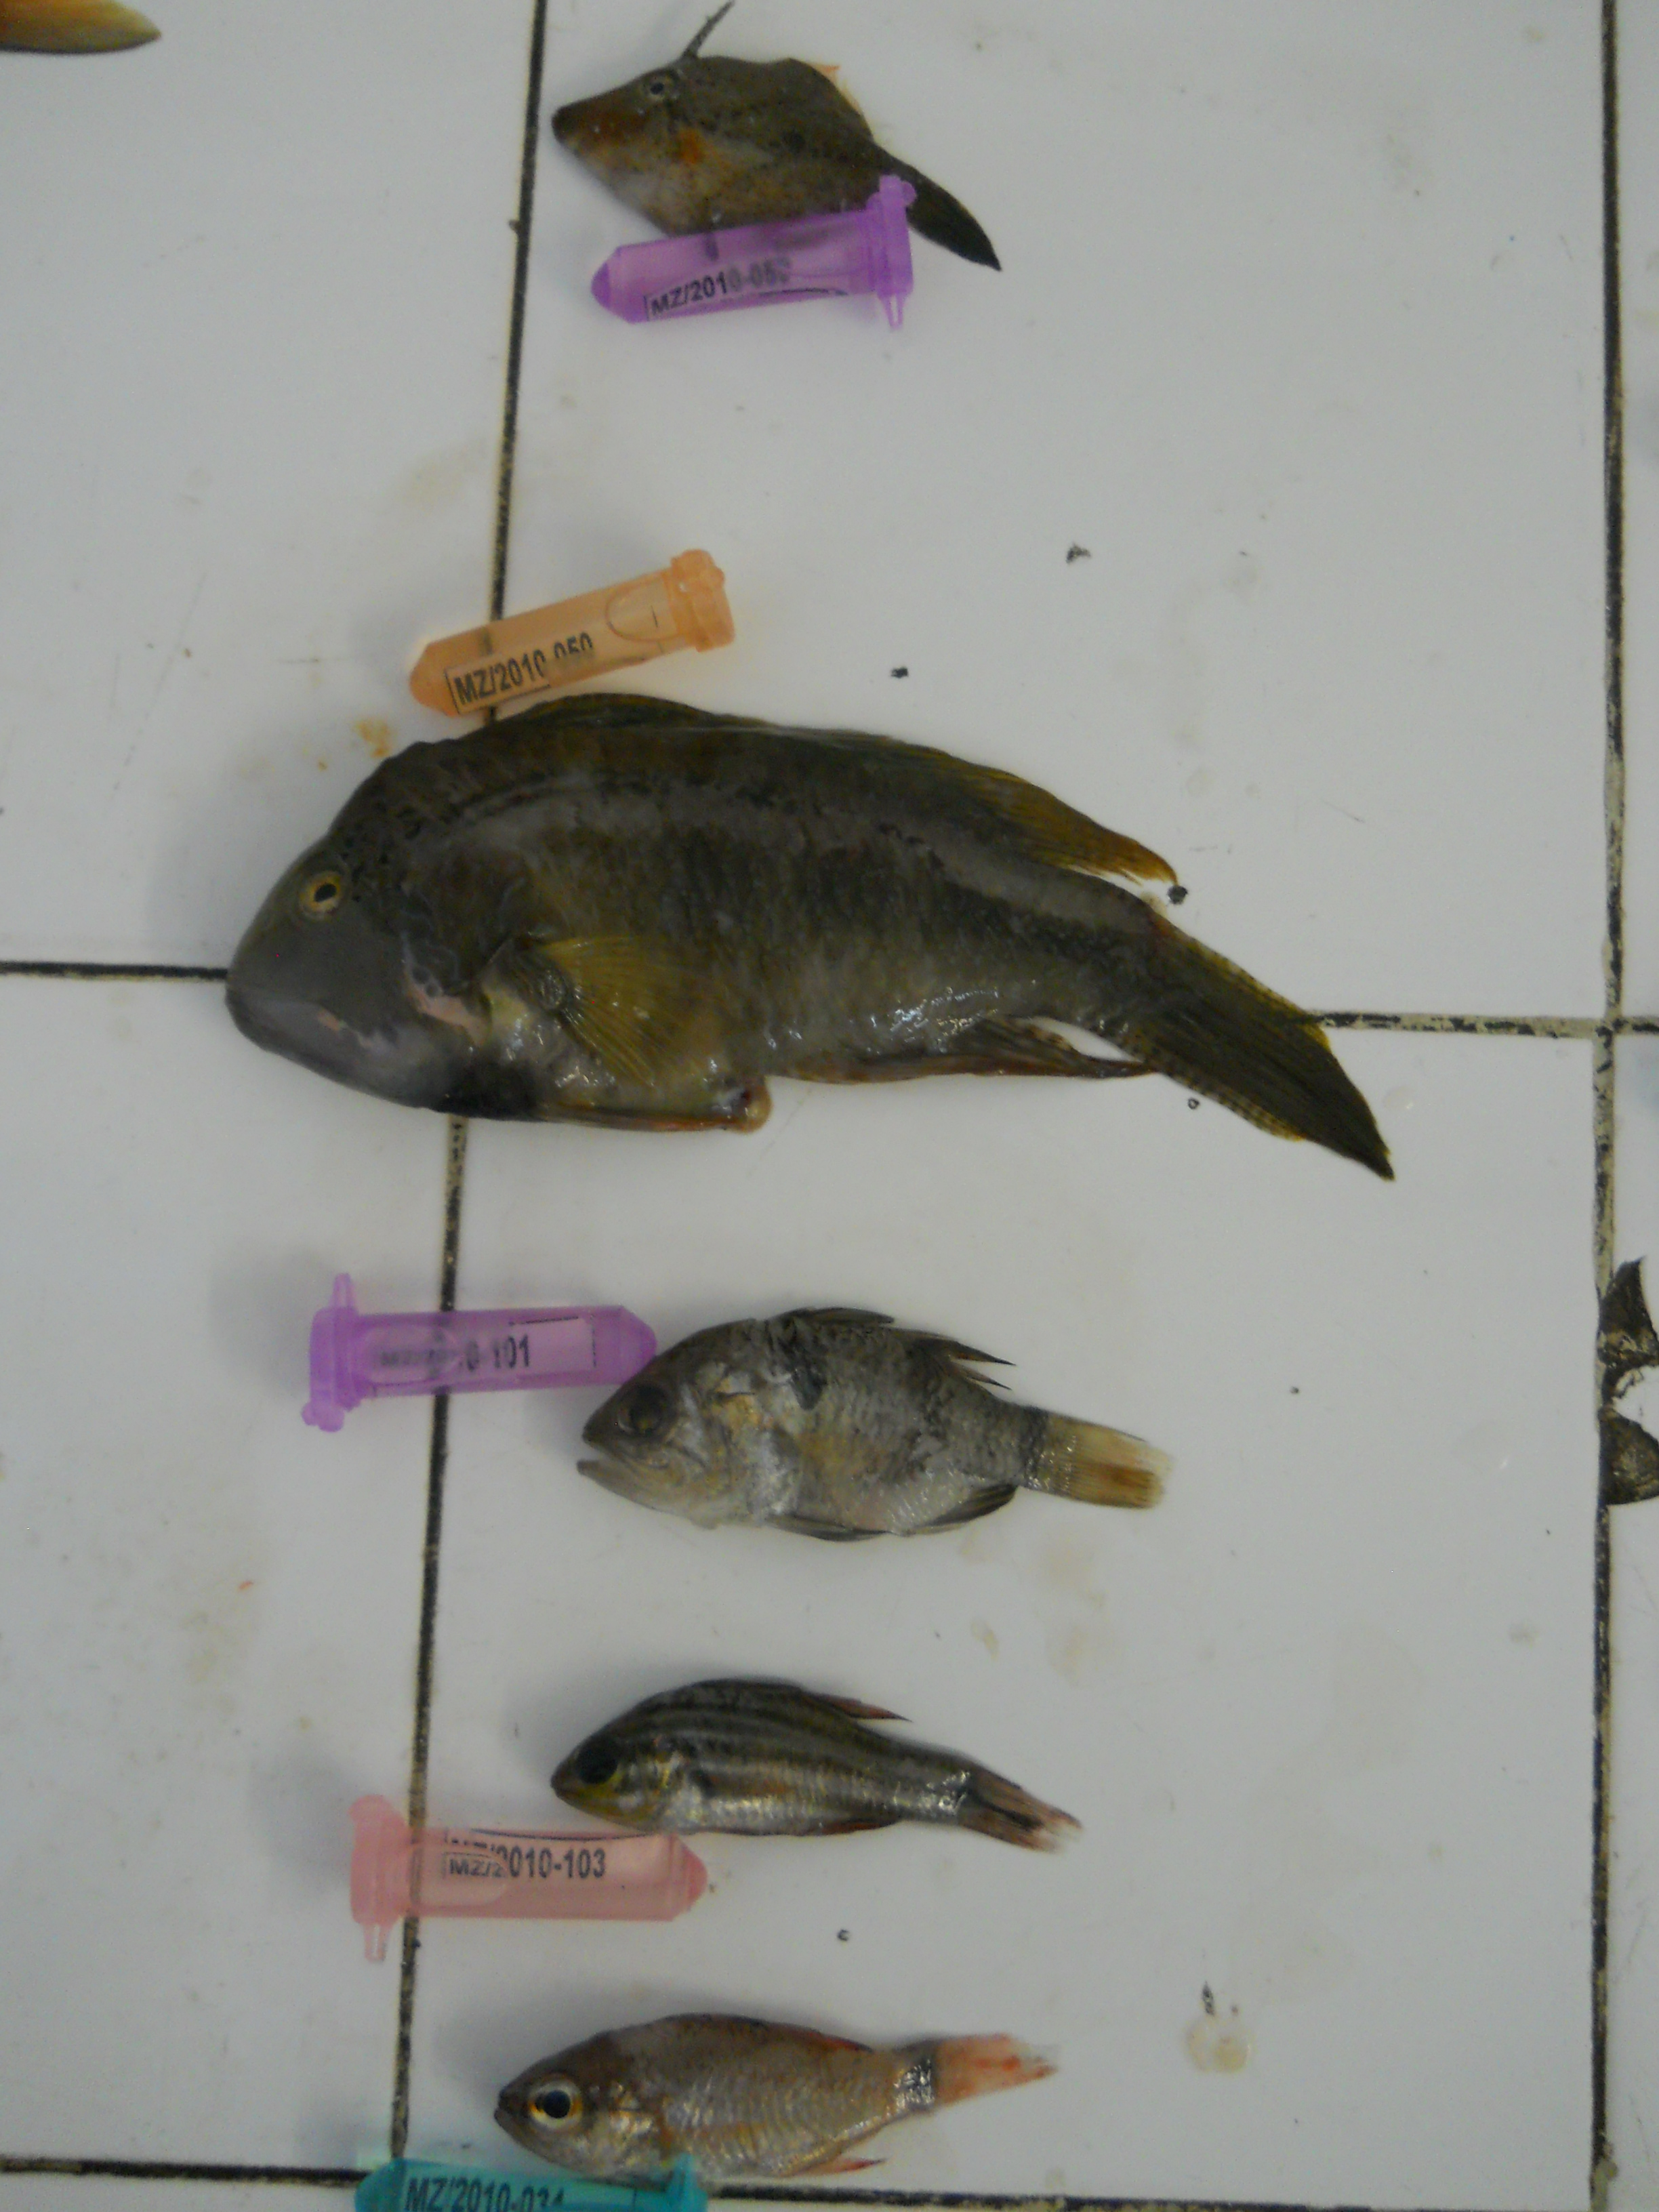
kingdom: Animalia
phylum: Chordata
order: Tetraodontiformes
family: Monacanthidae
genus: Pervagor
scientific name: Pervagor
